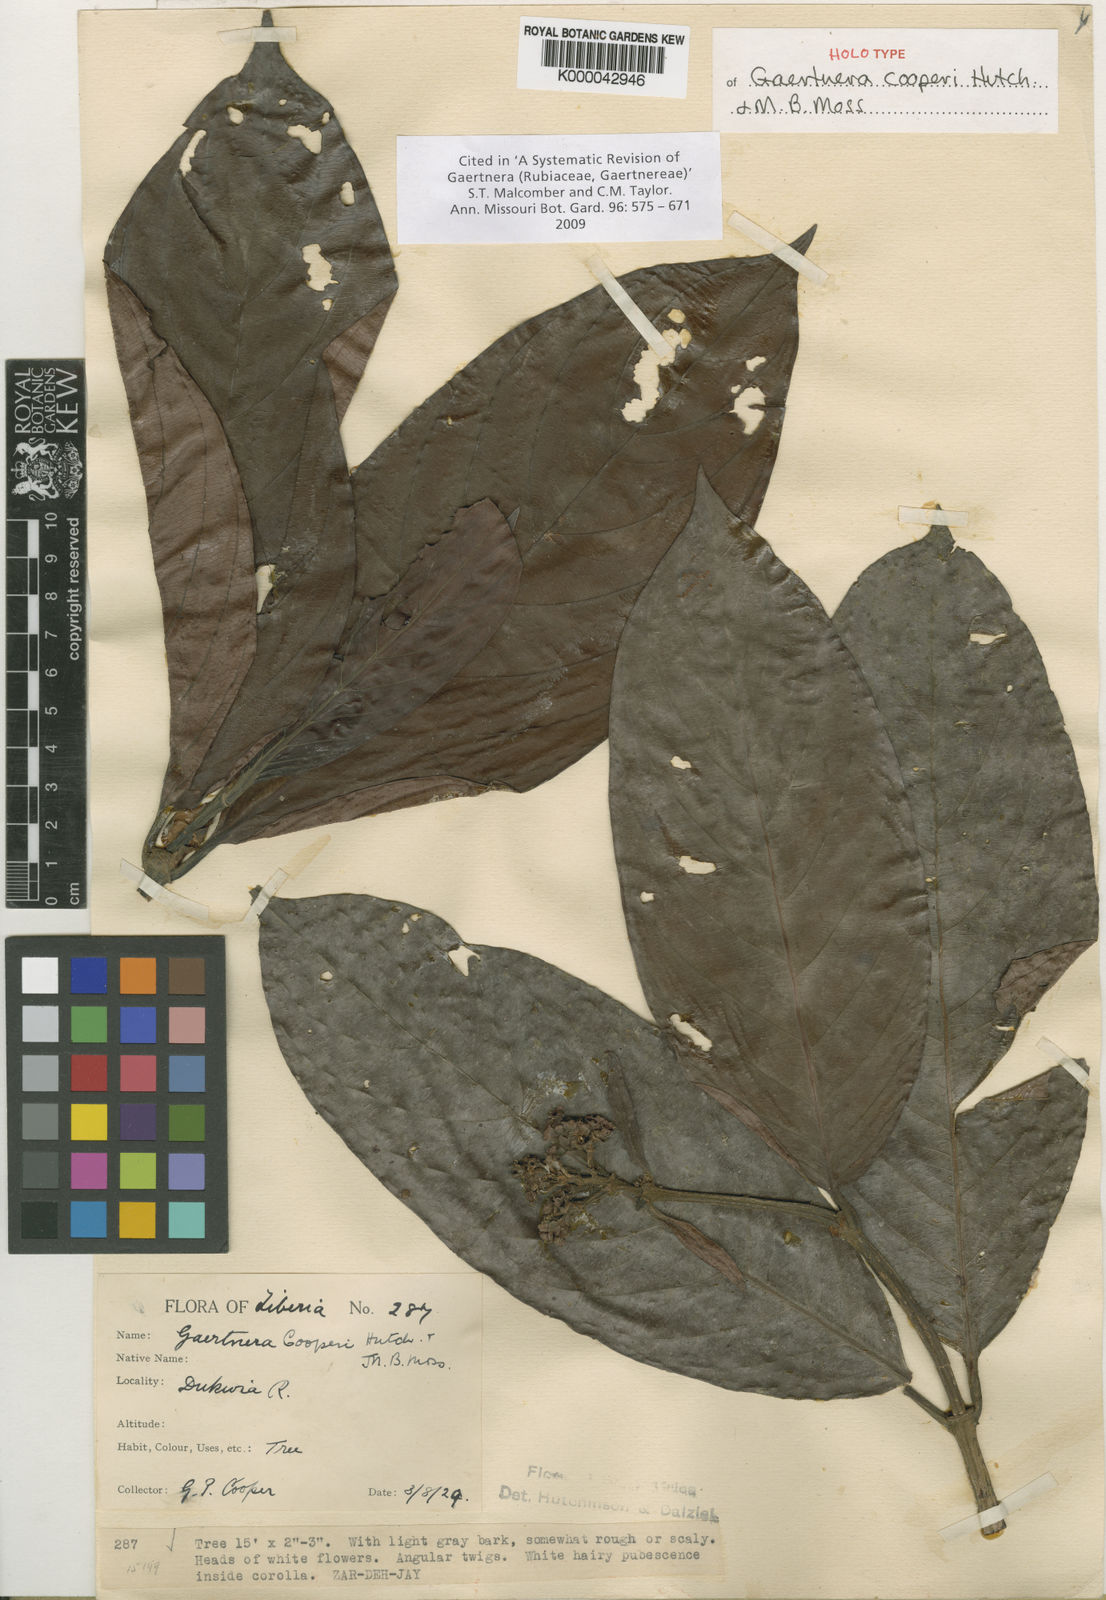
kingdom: Plantae
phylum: Tracheophyta
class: Magnoliopsida
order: Gentianales
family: Rubiaceae
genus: Gaertnera
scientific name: Gaertnera cooperi
